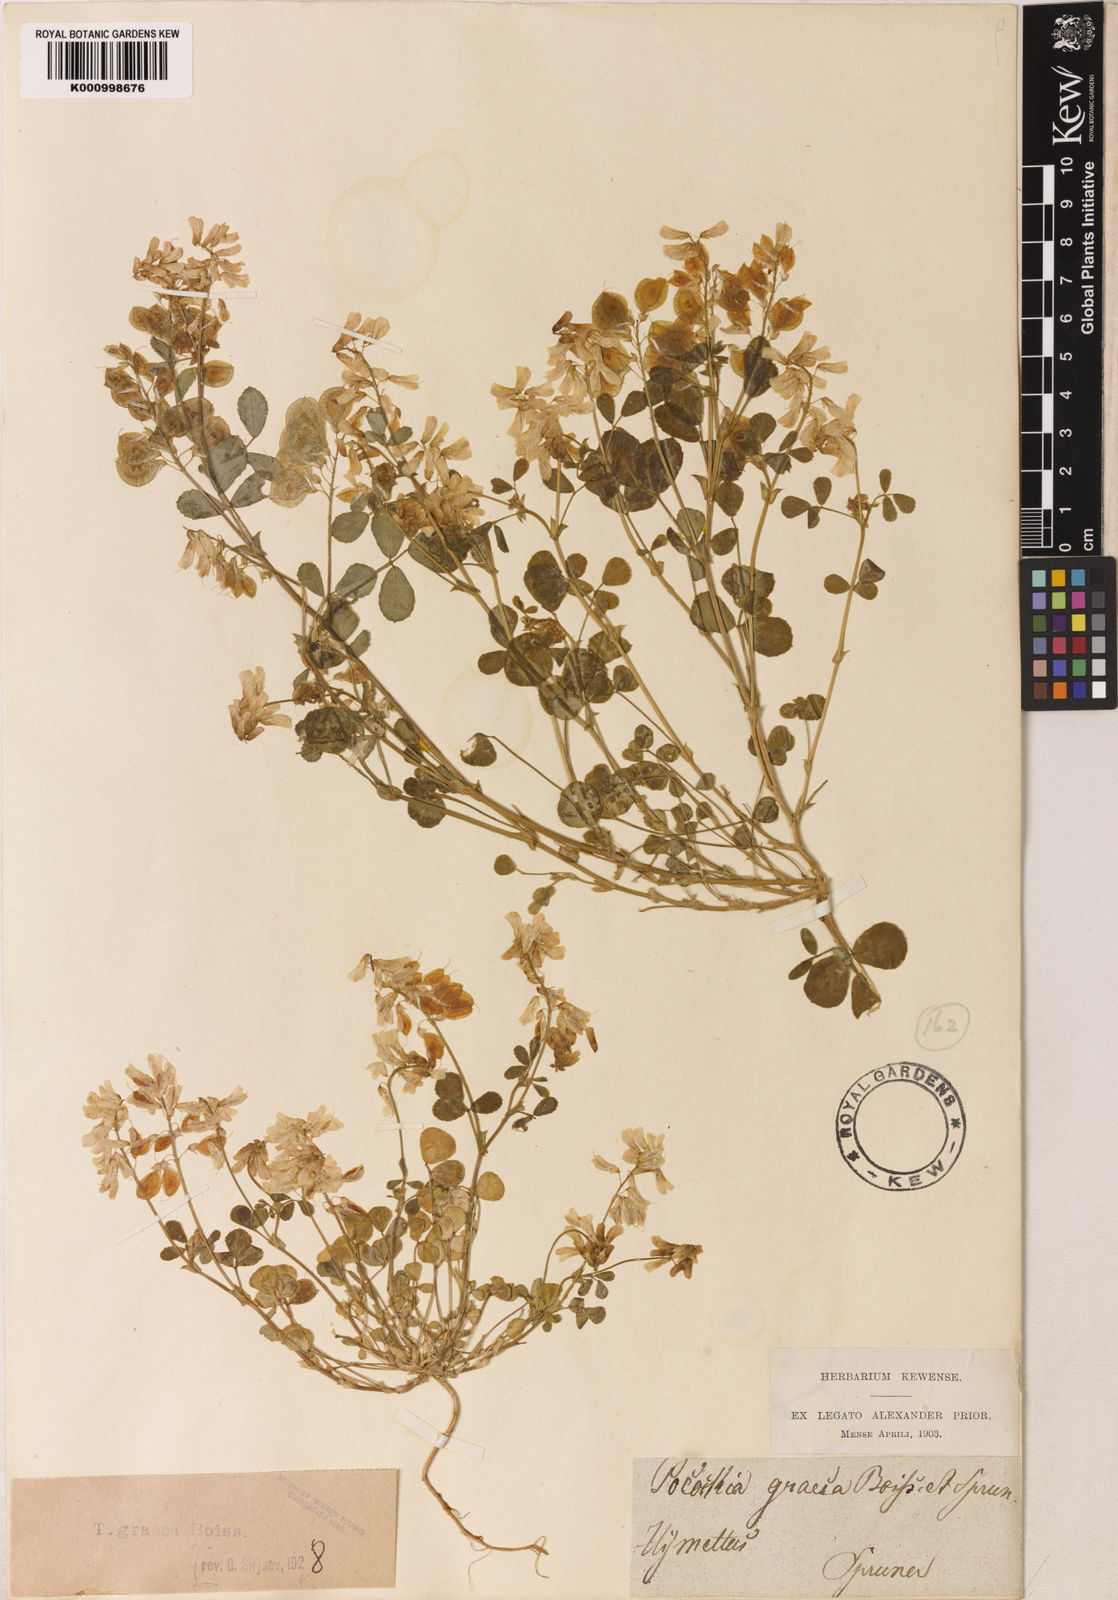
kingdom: Plantae
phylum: Tracheophyta
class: Magnoliopsida
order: Fabales
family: Fabaceae
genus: Trigonella
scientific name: Trigonella graeca
